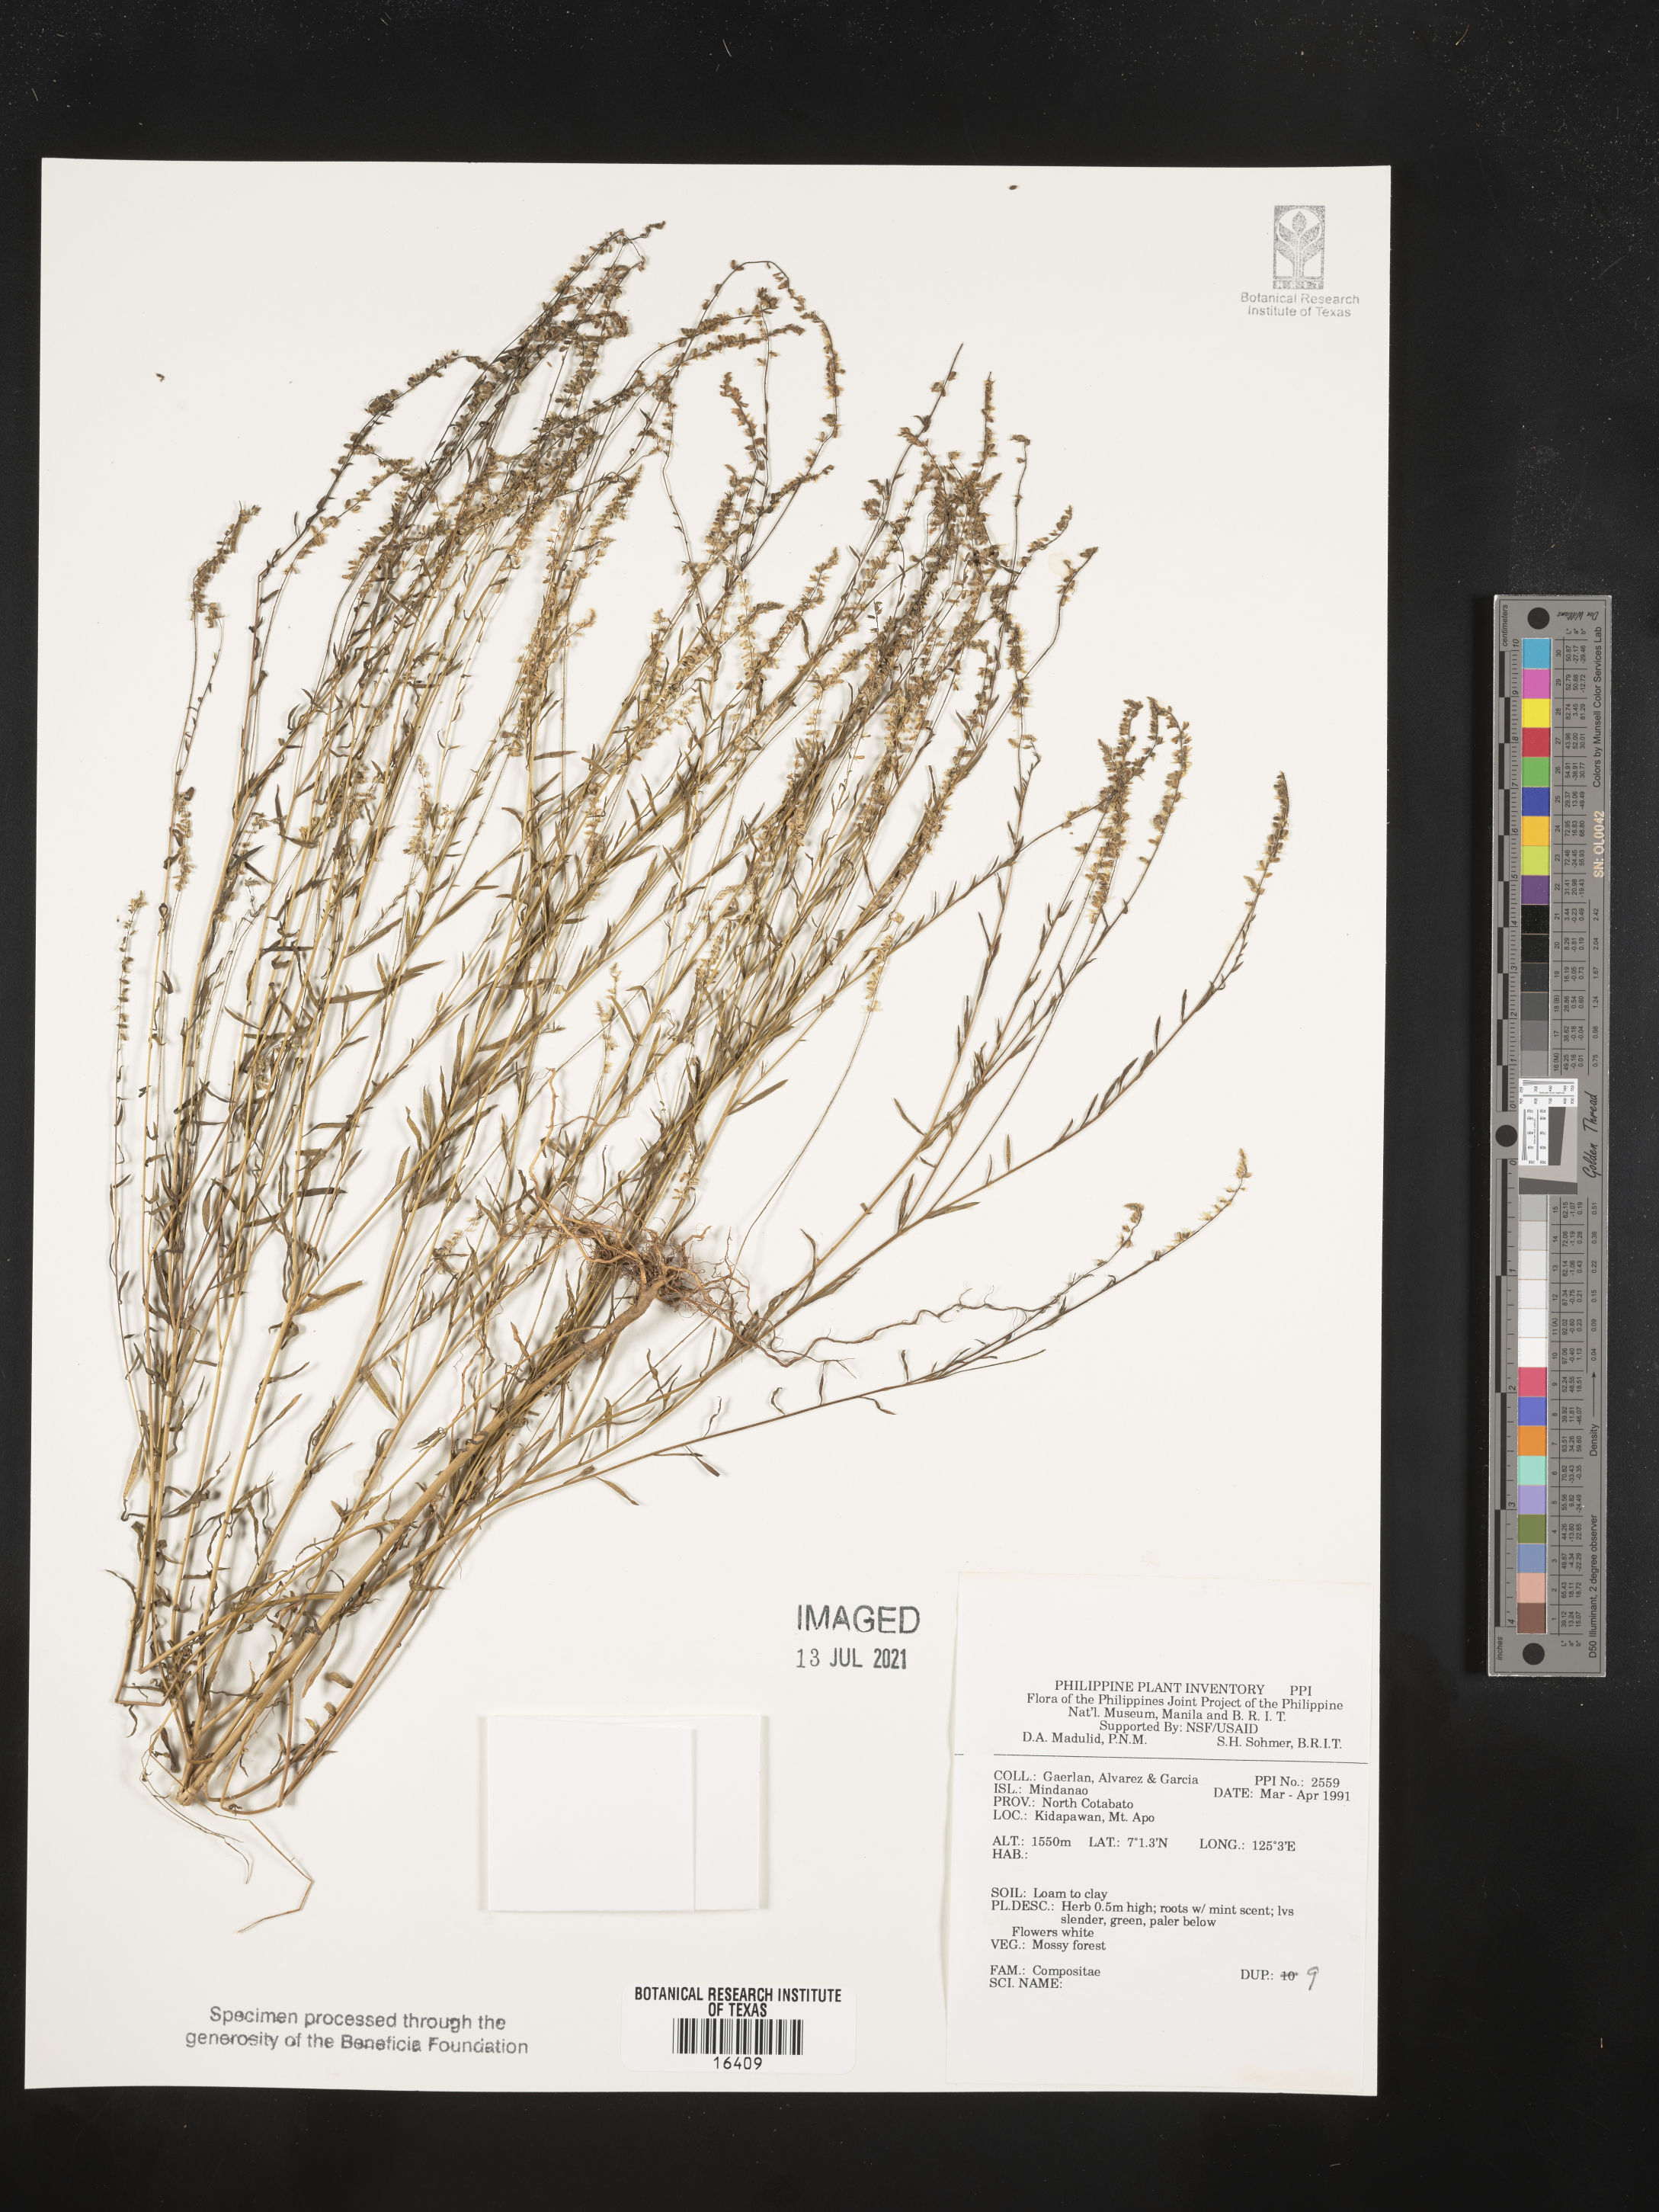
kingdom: Plantae
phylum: Tracheophyta
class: Magnoliopsida
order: Asterales
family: Asteraceae
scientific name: Asteraceae
